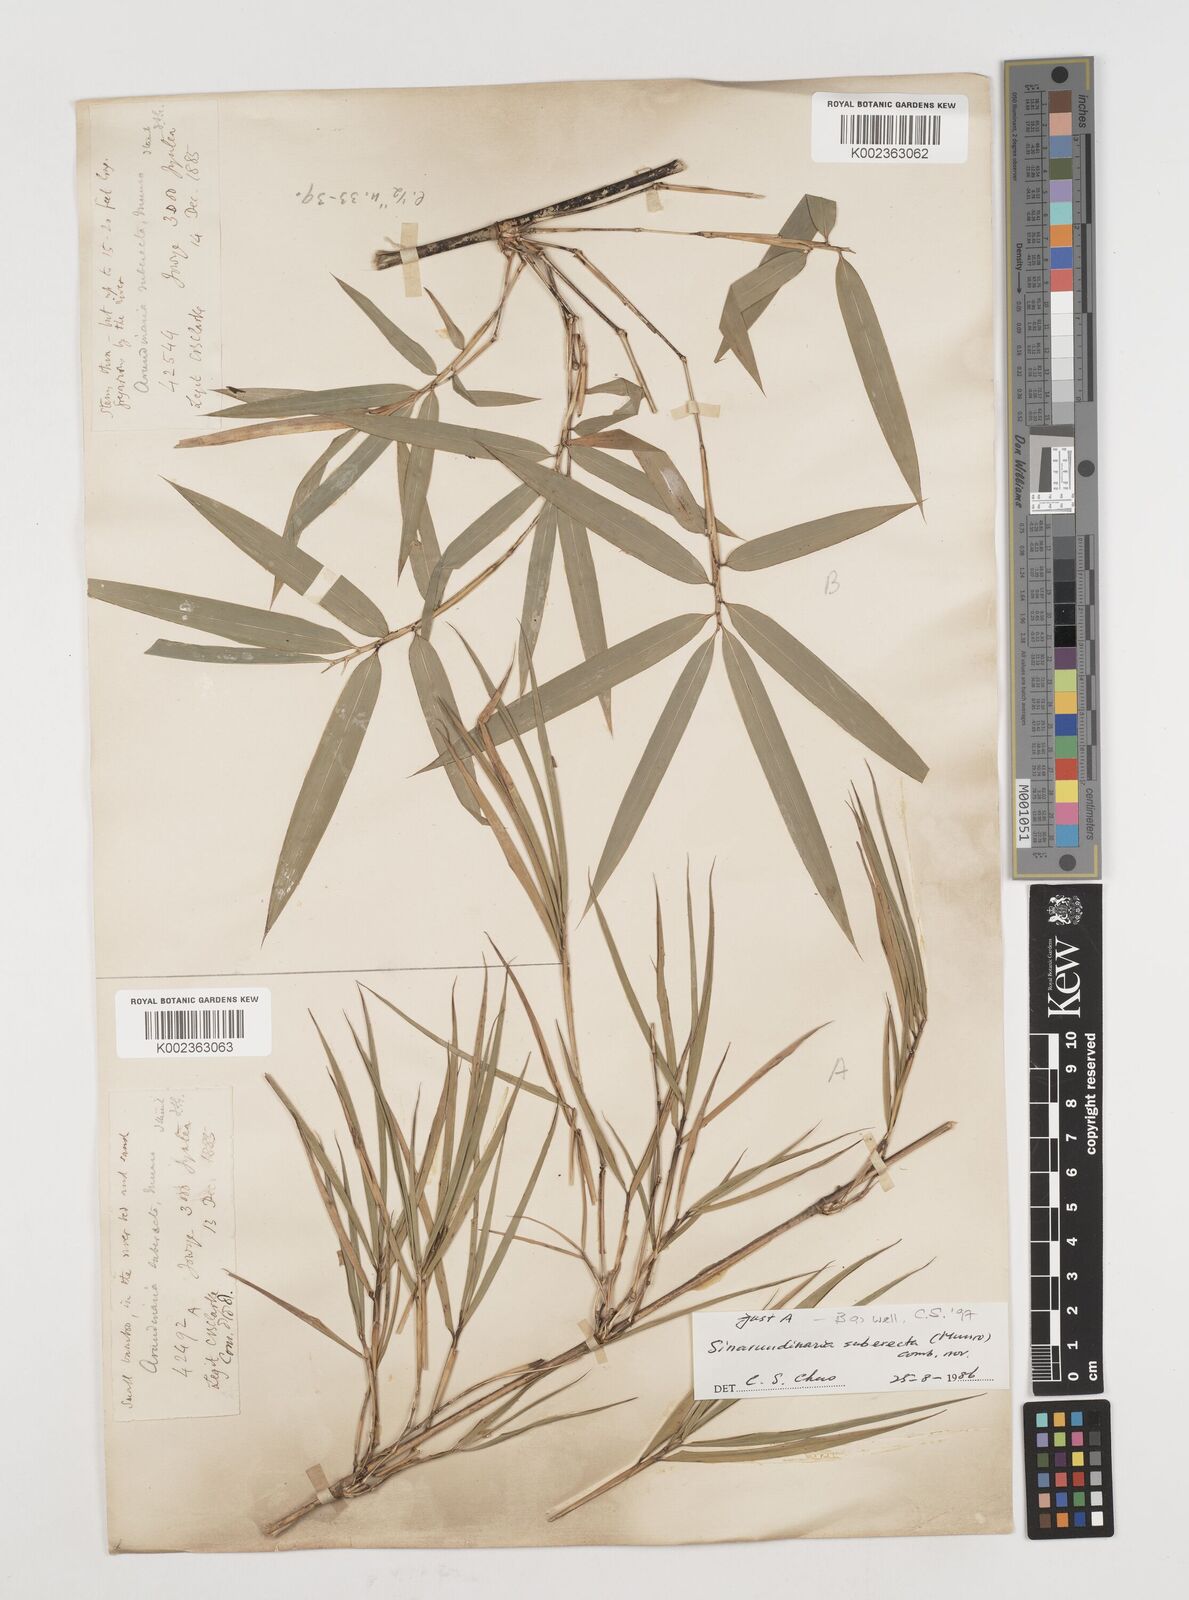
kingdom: Plantae
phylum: Tracheophyta
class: Liliopsida
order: Poales
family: Poaceae
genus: Drepanostachyum
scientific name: Drepanostachyum khasianum
